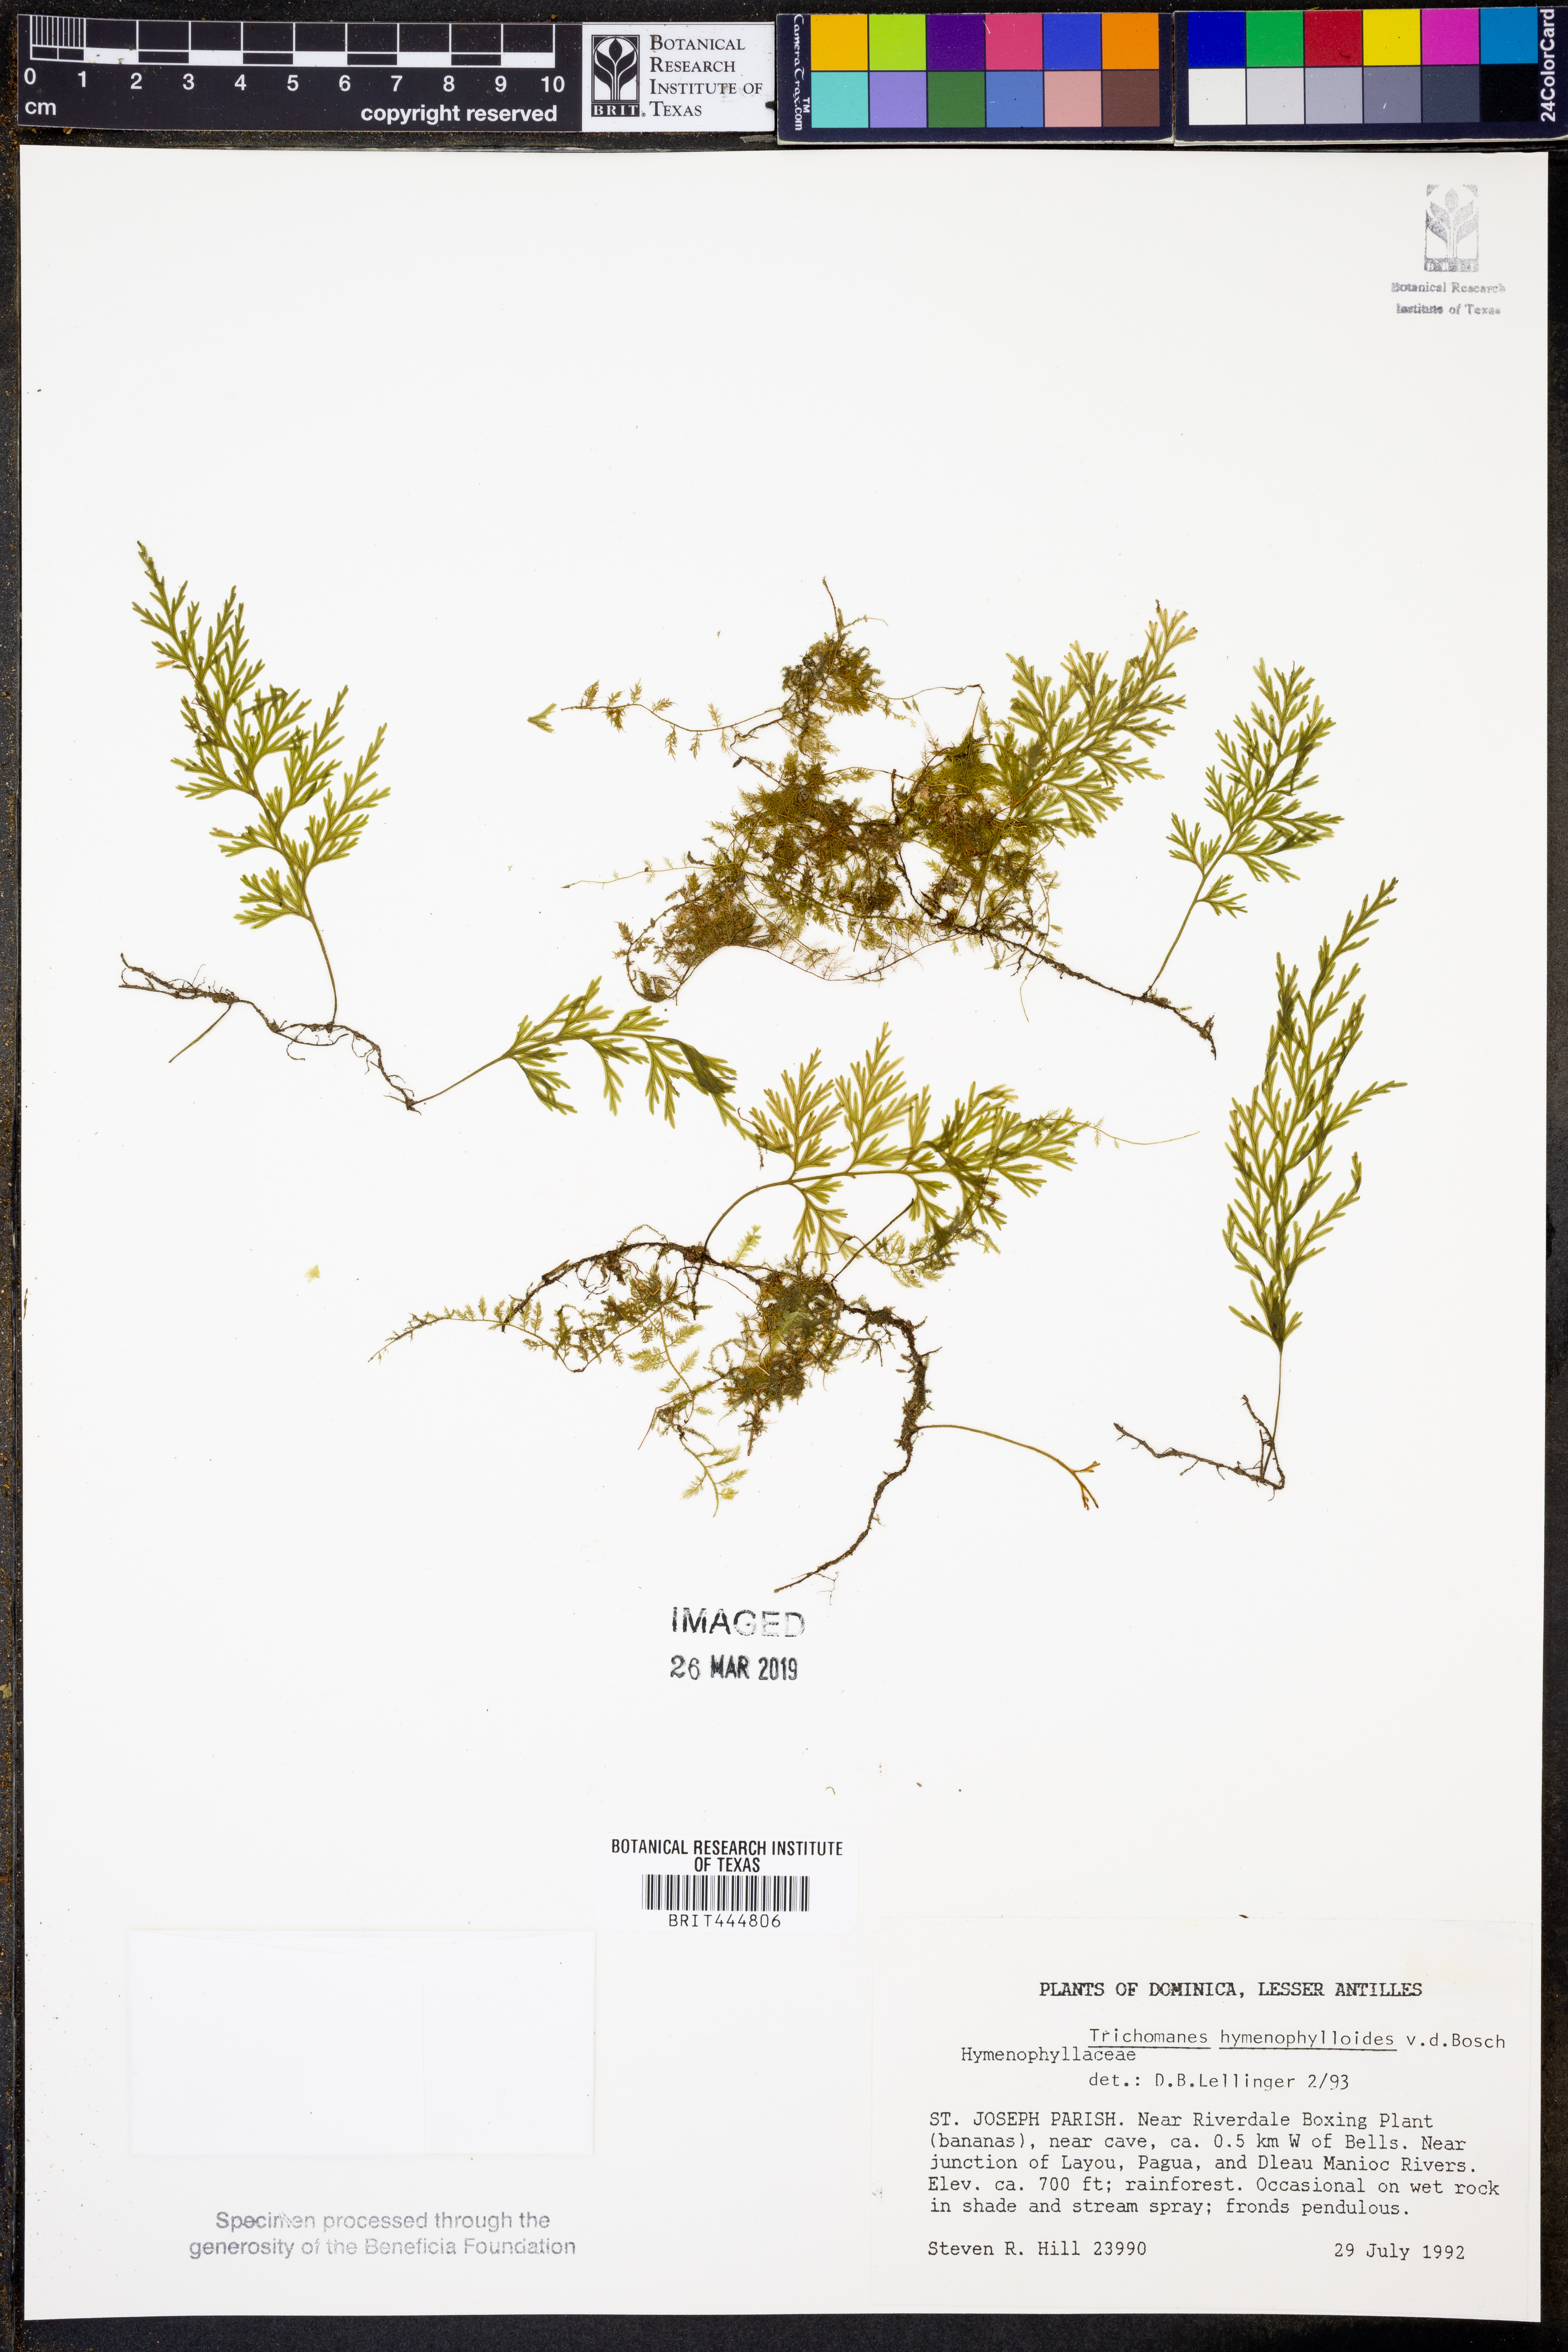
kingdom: Plantae
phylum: Tracheophyta
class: Polypodiopsida
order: Hymenophyllales
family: Hymenophyllaceae
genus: Polyphlebium
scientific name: Polyphlebium hymenophylloides
